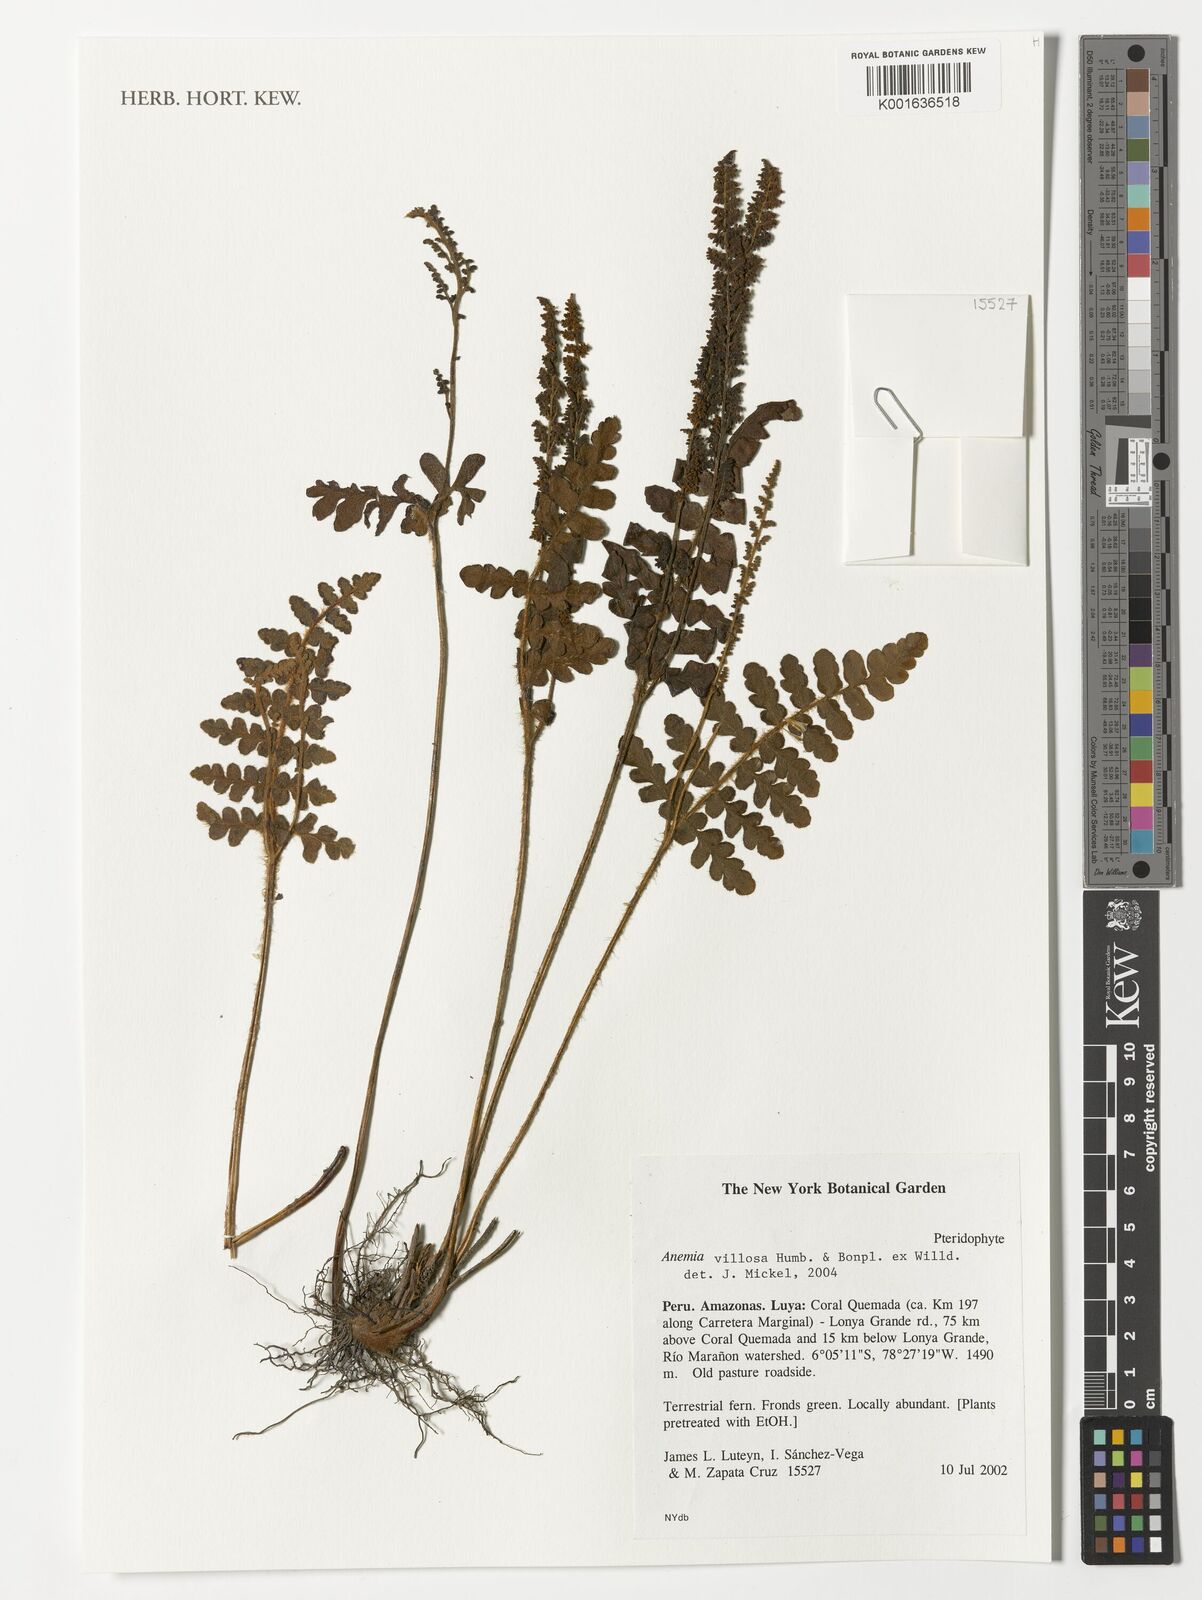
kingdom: Plantae
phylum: Tracheophyta
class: Polypodiopsida
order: Schizaeales
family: Anemiaceae
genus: Anemia
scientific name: Anemia villosa
